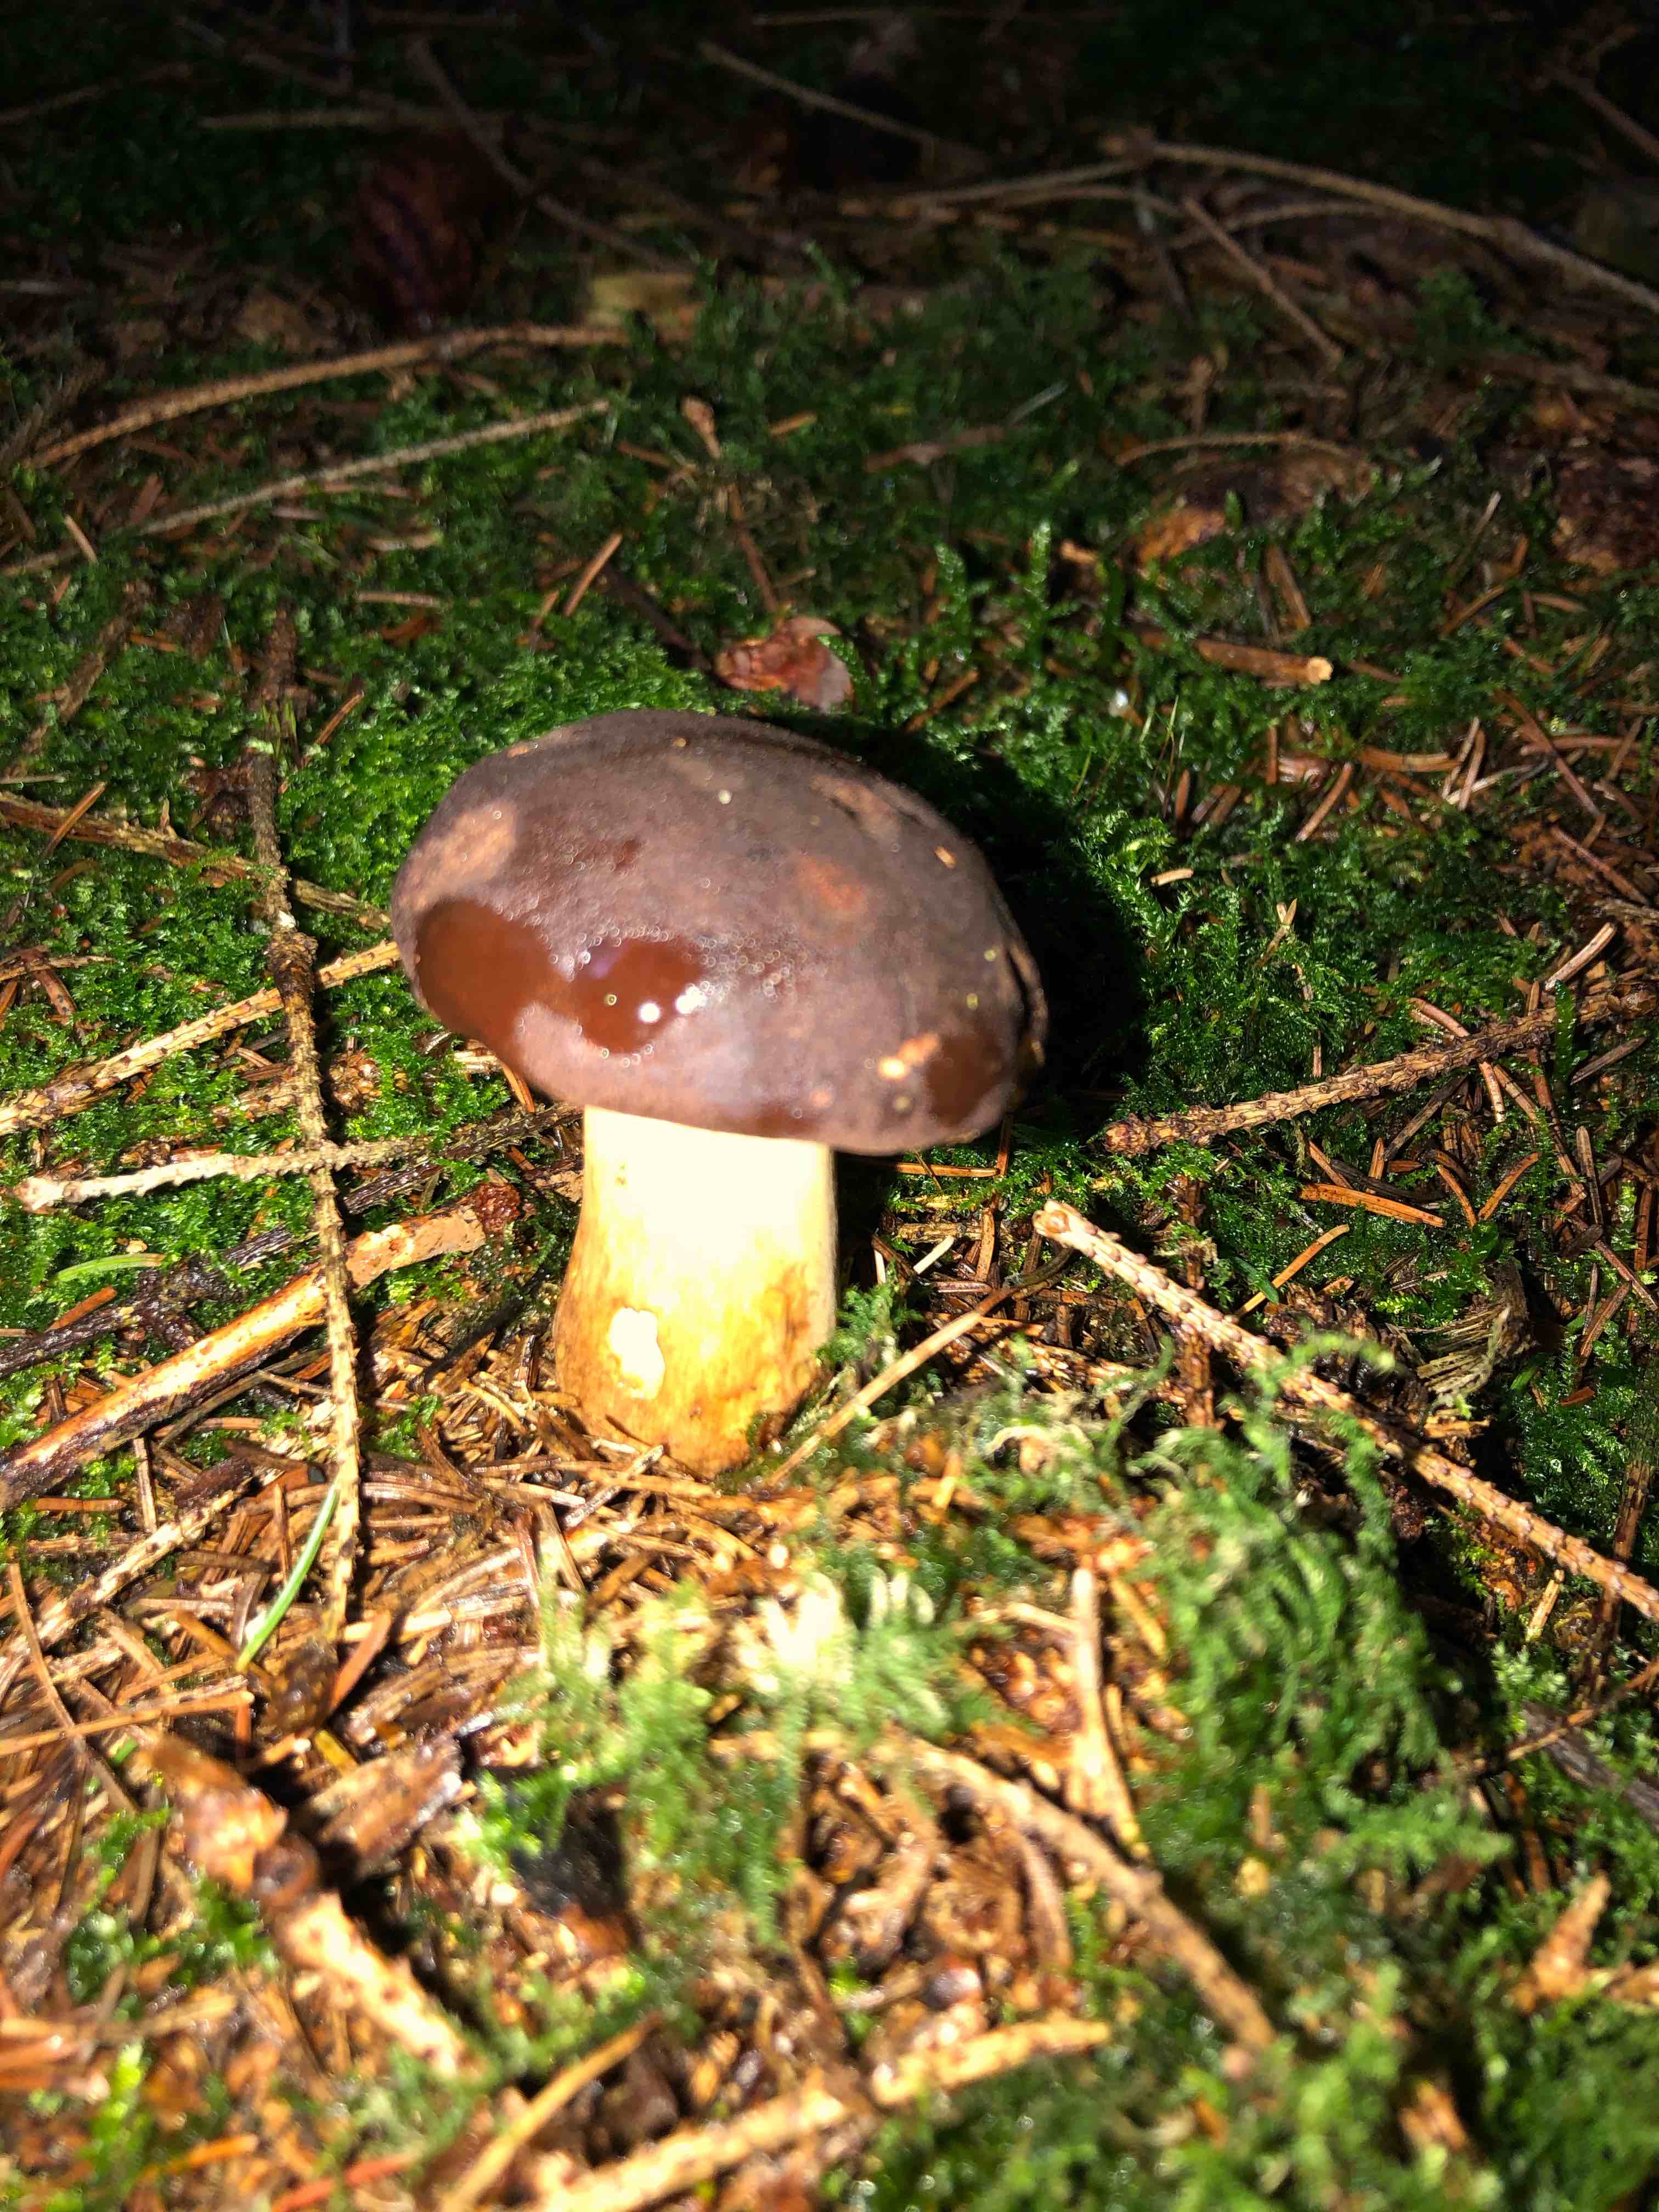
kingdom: Fungi
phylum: Basidiomycota
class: Agaricomycetes
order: Boletales
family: Boletaceae
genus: Imleria
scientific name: Imleria badia
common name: brunstokket rørhat
